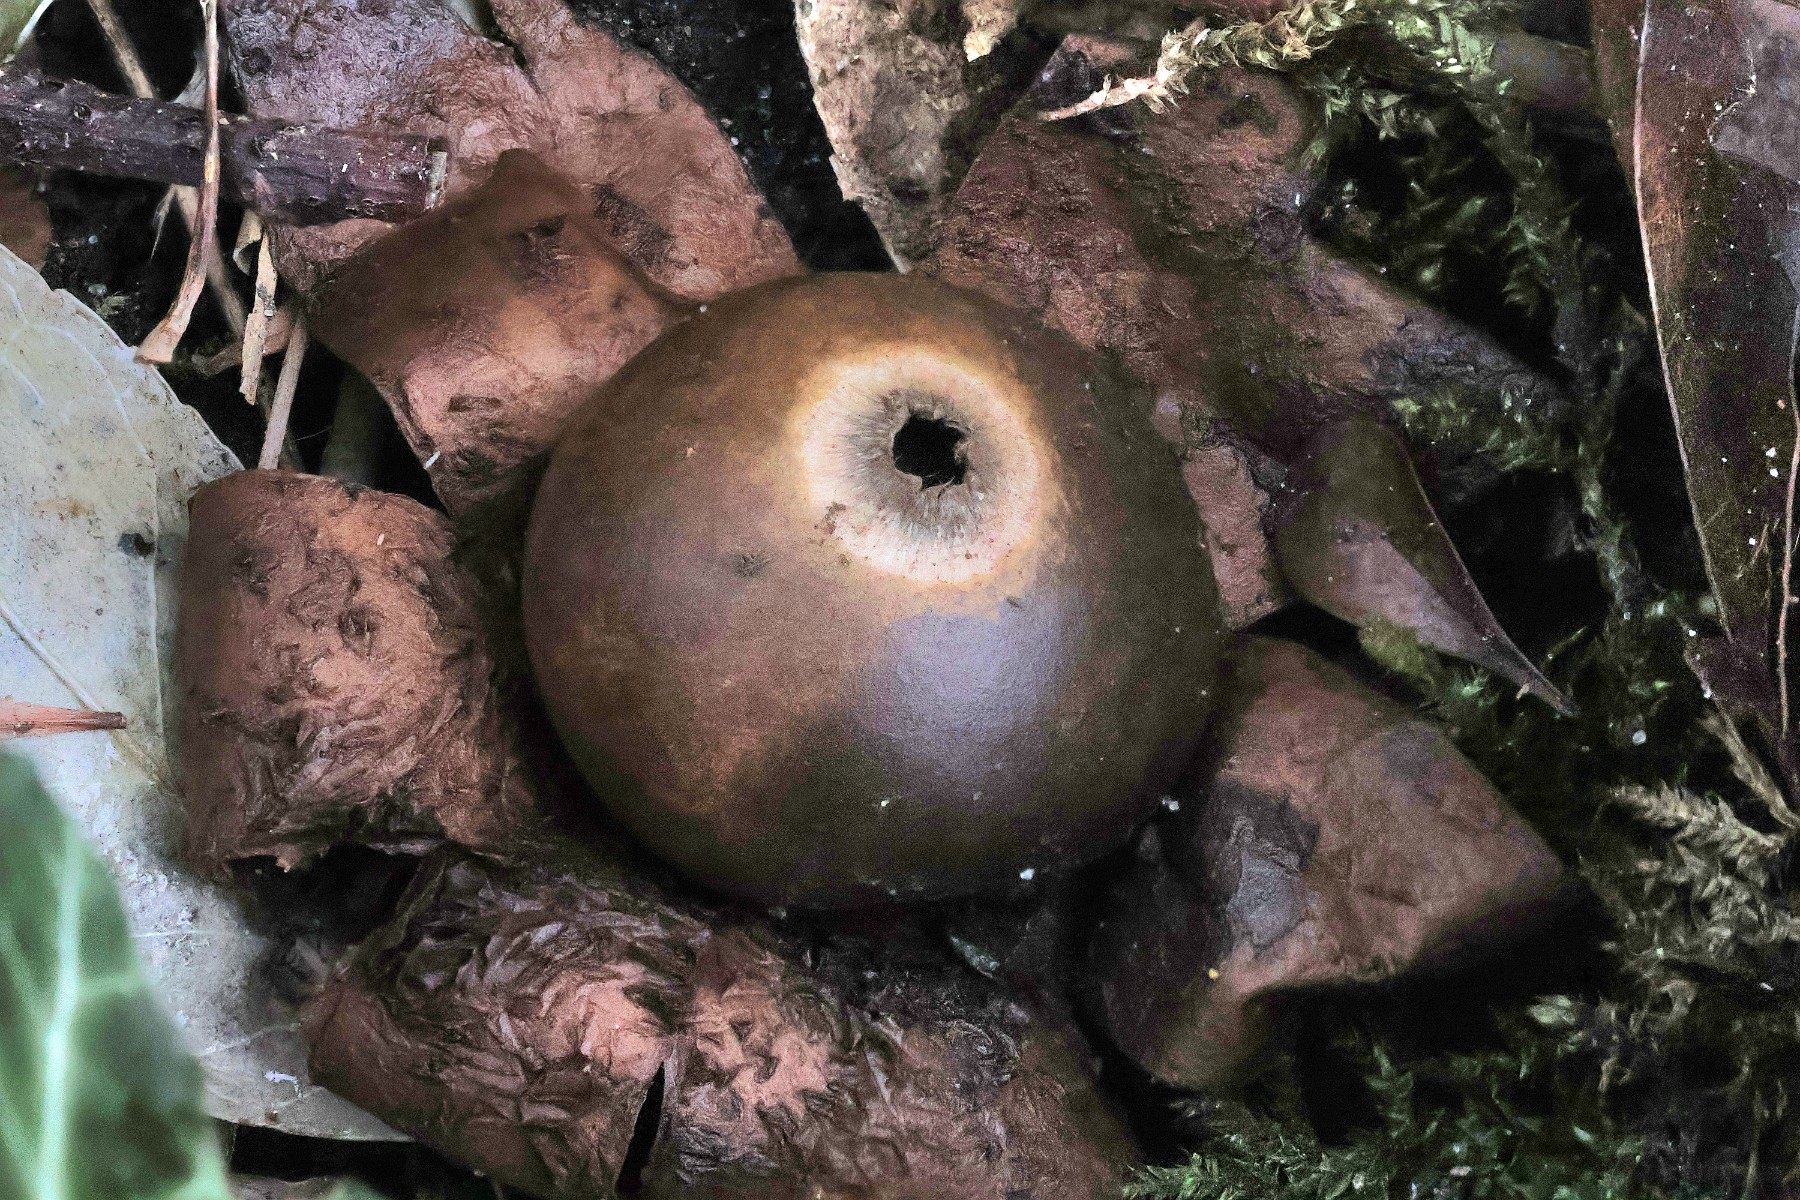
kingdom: Fungi
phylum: Basidiomycota
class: Agaricomycetes
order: Geastrales
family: Geastraceae
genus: Geastrum
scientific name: Geastrum michelianum
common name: kødet stjernebold
